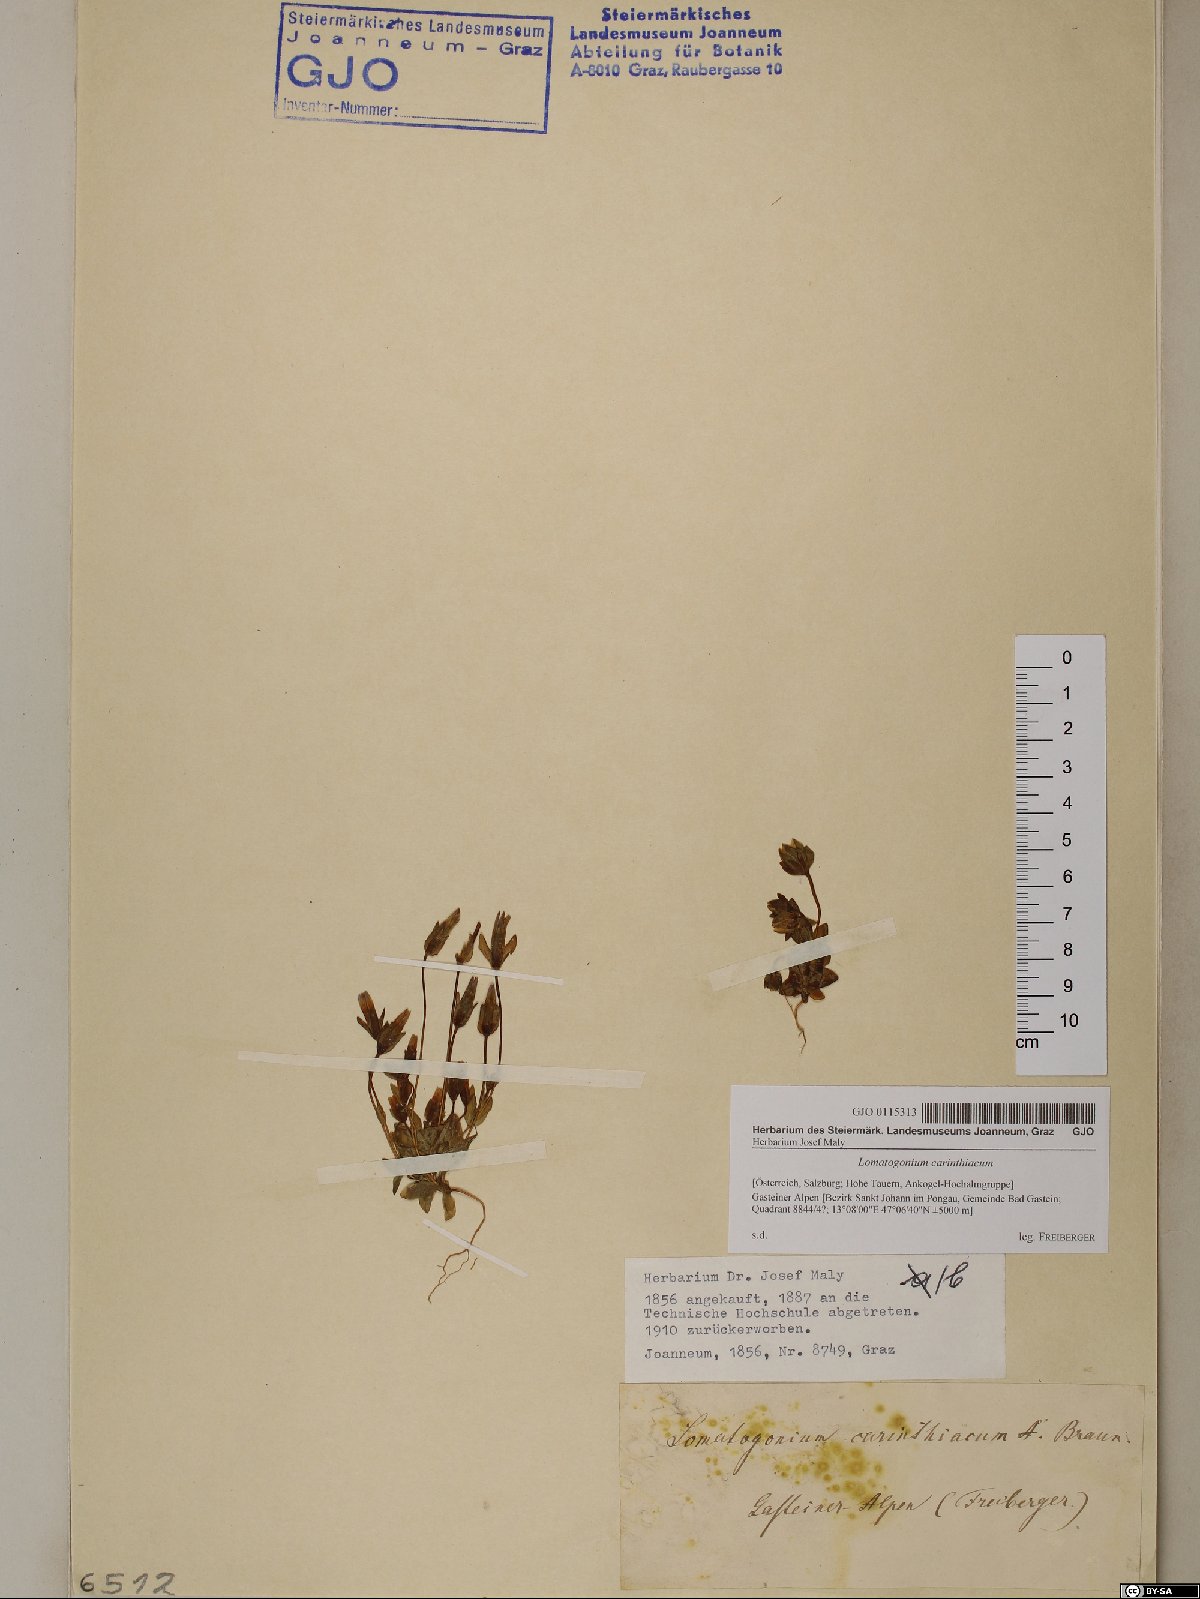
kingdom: Plantae
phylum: Tracheophyta
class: Magnoliopsida
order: Gentianales
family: Gentianaceae
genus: Lomatogonium
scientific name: Lomatogonium carinthiacum
